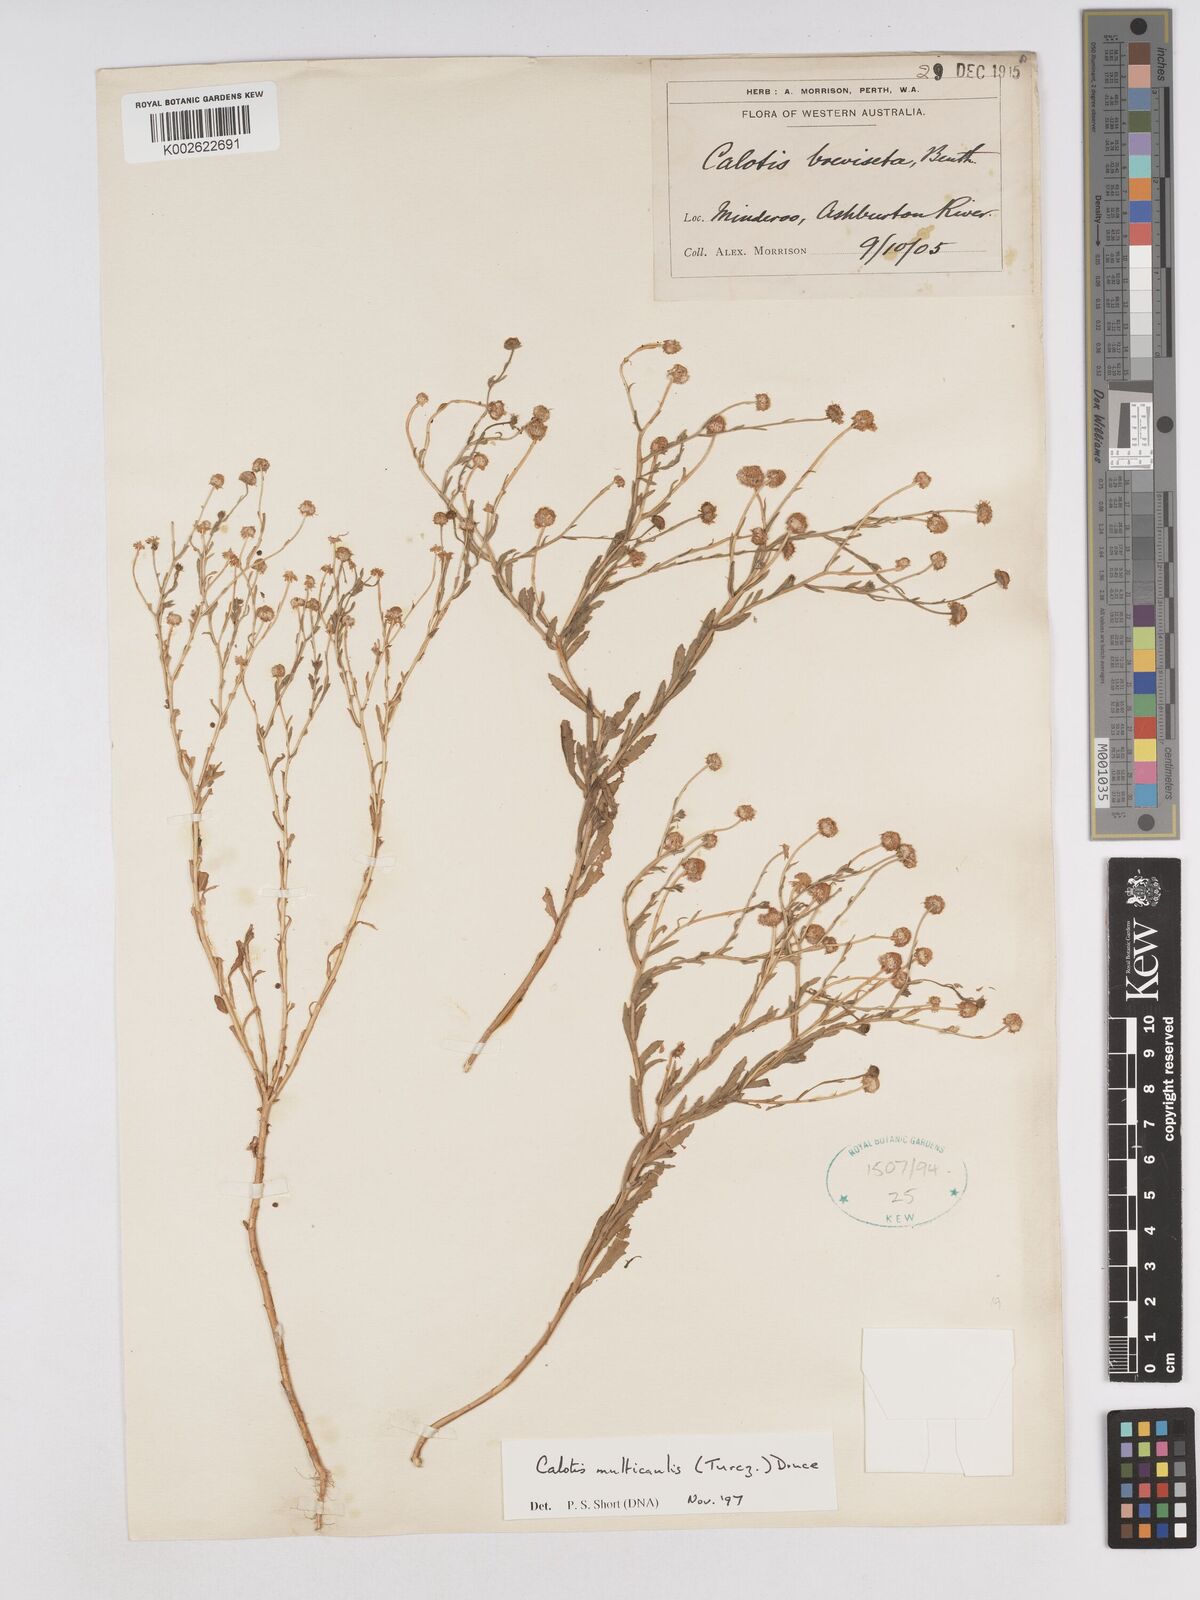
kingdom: Plantae
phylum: Tracheophyta
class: Magnoliopsida
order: Asterales
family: Asteraceae
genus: Calotis
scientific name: Calotis multicaulis
